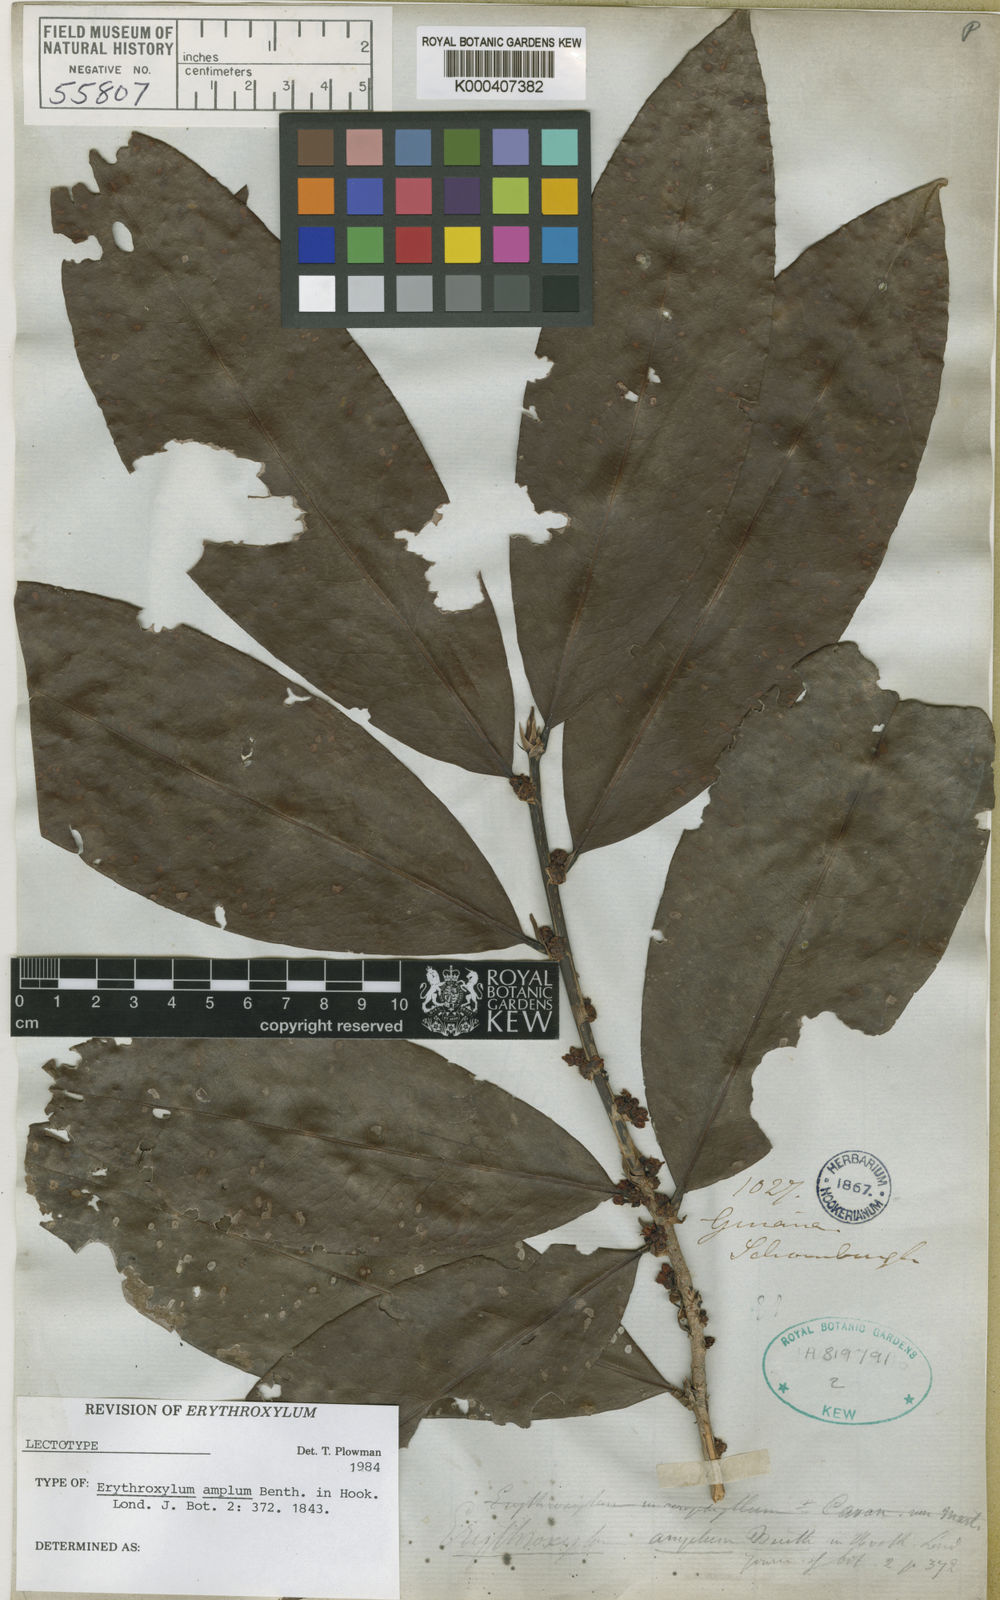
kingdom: Plantae
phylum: Tracheophyta
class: Magnoliopsida
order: Malpighiales
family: Erythroxylaceae
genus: Erythroxylum
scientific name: Erythroxylum amplum
